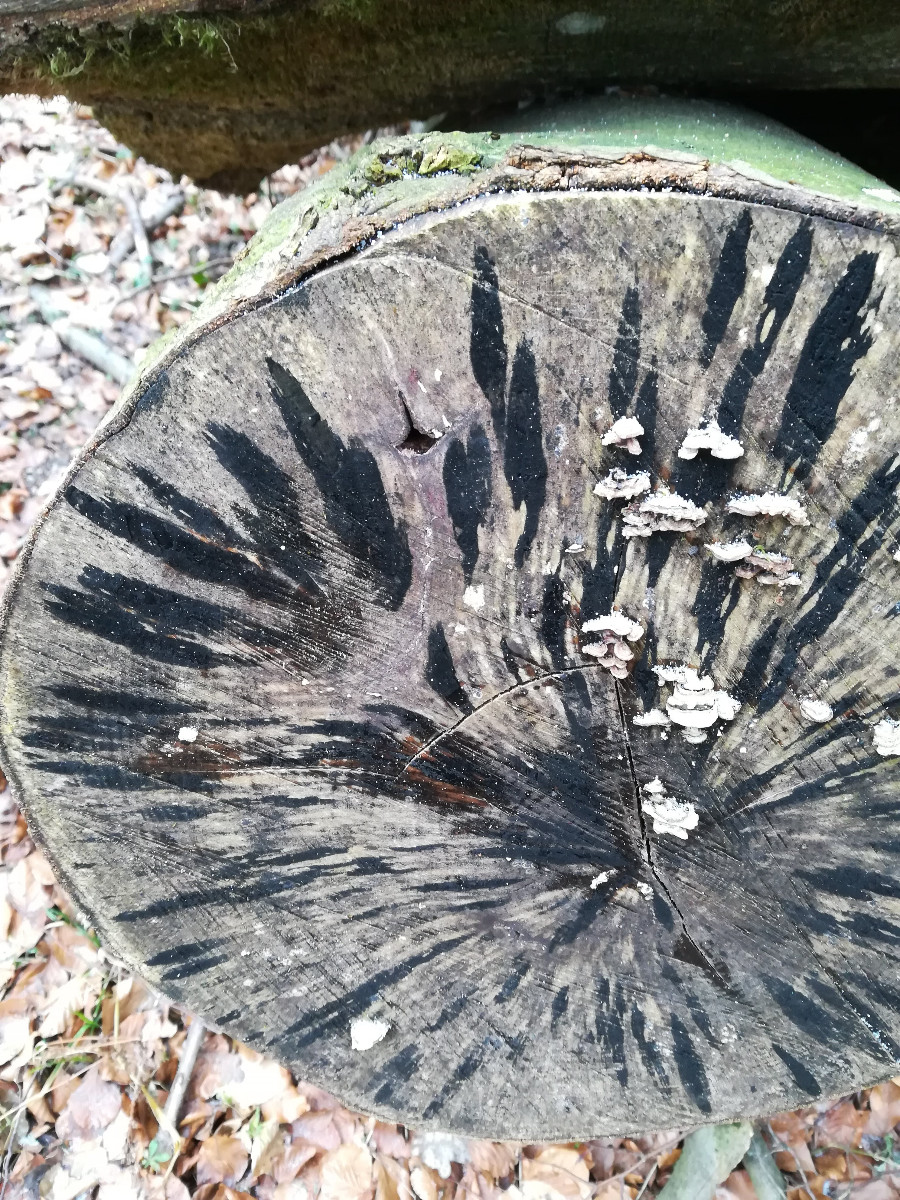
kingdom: Fungi
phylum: Ascomycota
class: Leotiomycetes
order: Helotiales
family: Helotiaceae
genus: Bispora
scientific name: Bispora pallescens
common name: måtte-snitskive
